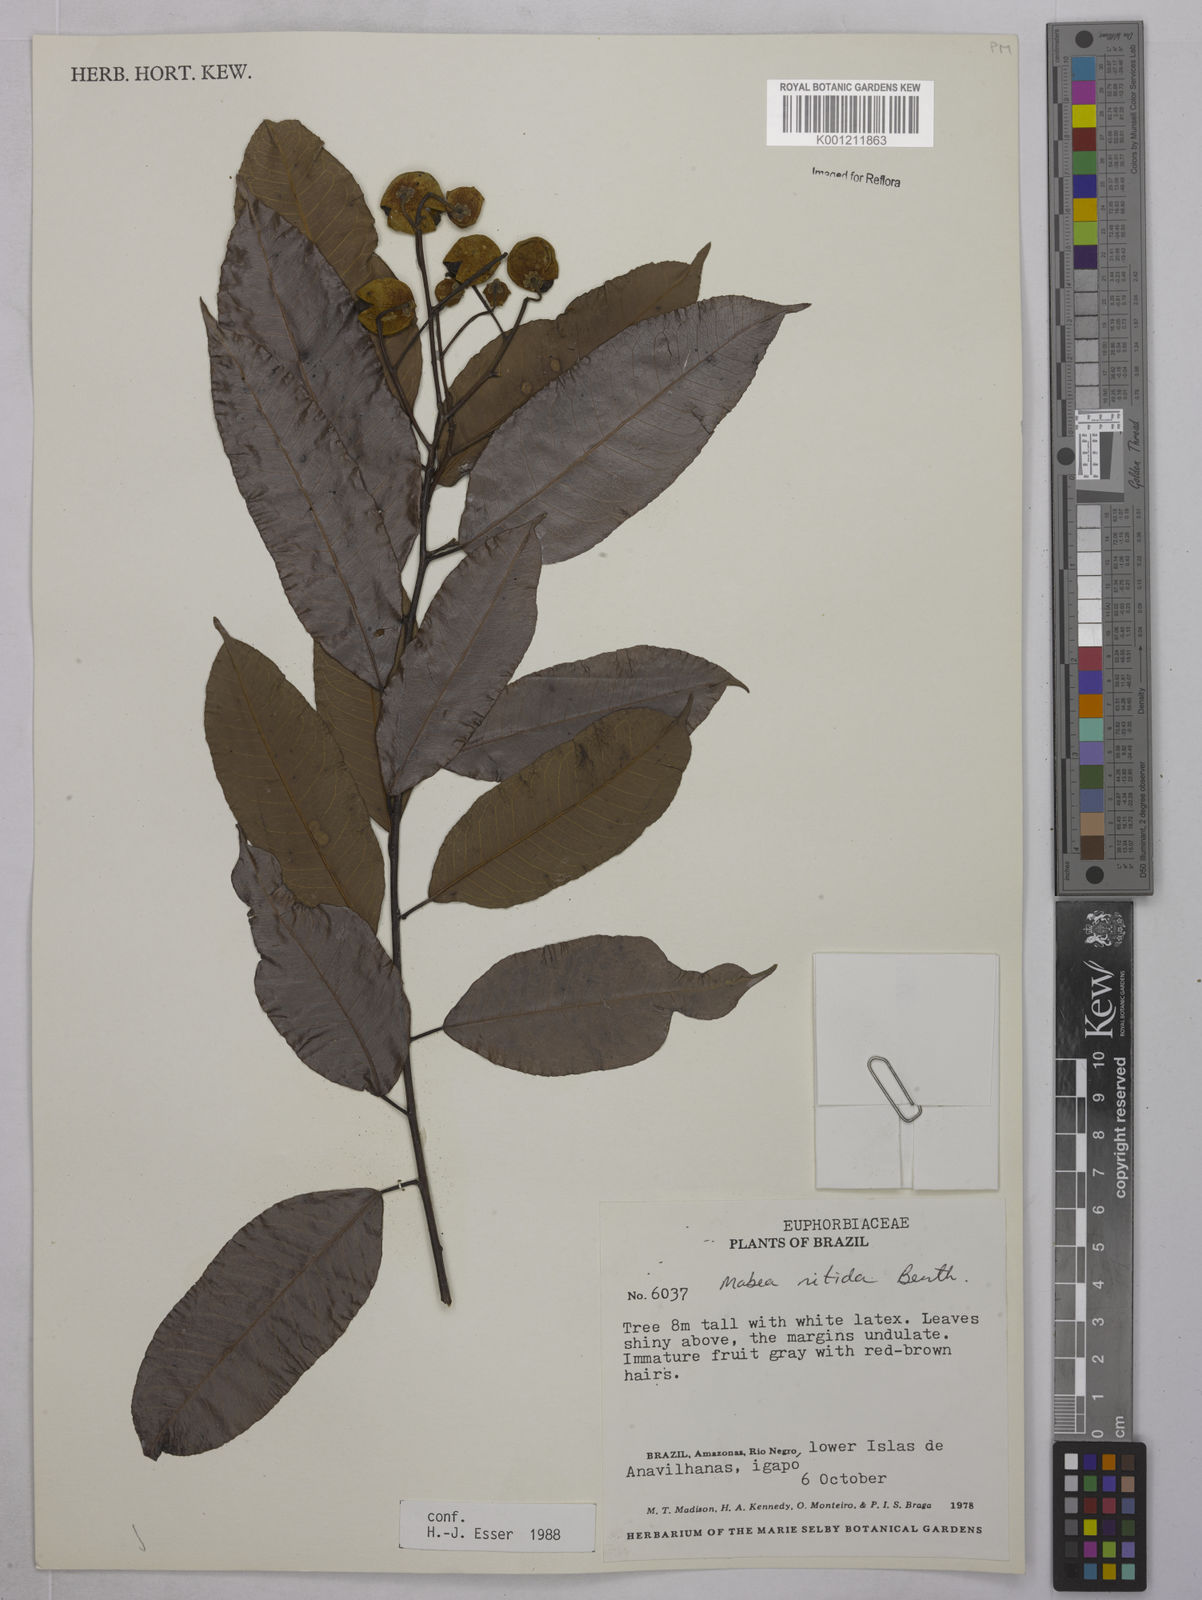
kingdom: Plantae
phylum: Tracheophyta
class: Magnoliopsida
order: Malpighiales
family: Euphorbiaceae
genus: Mabea
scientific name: Mabea nitida
